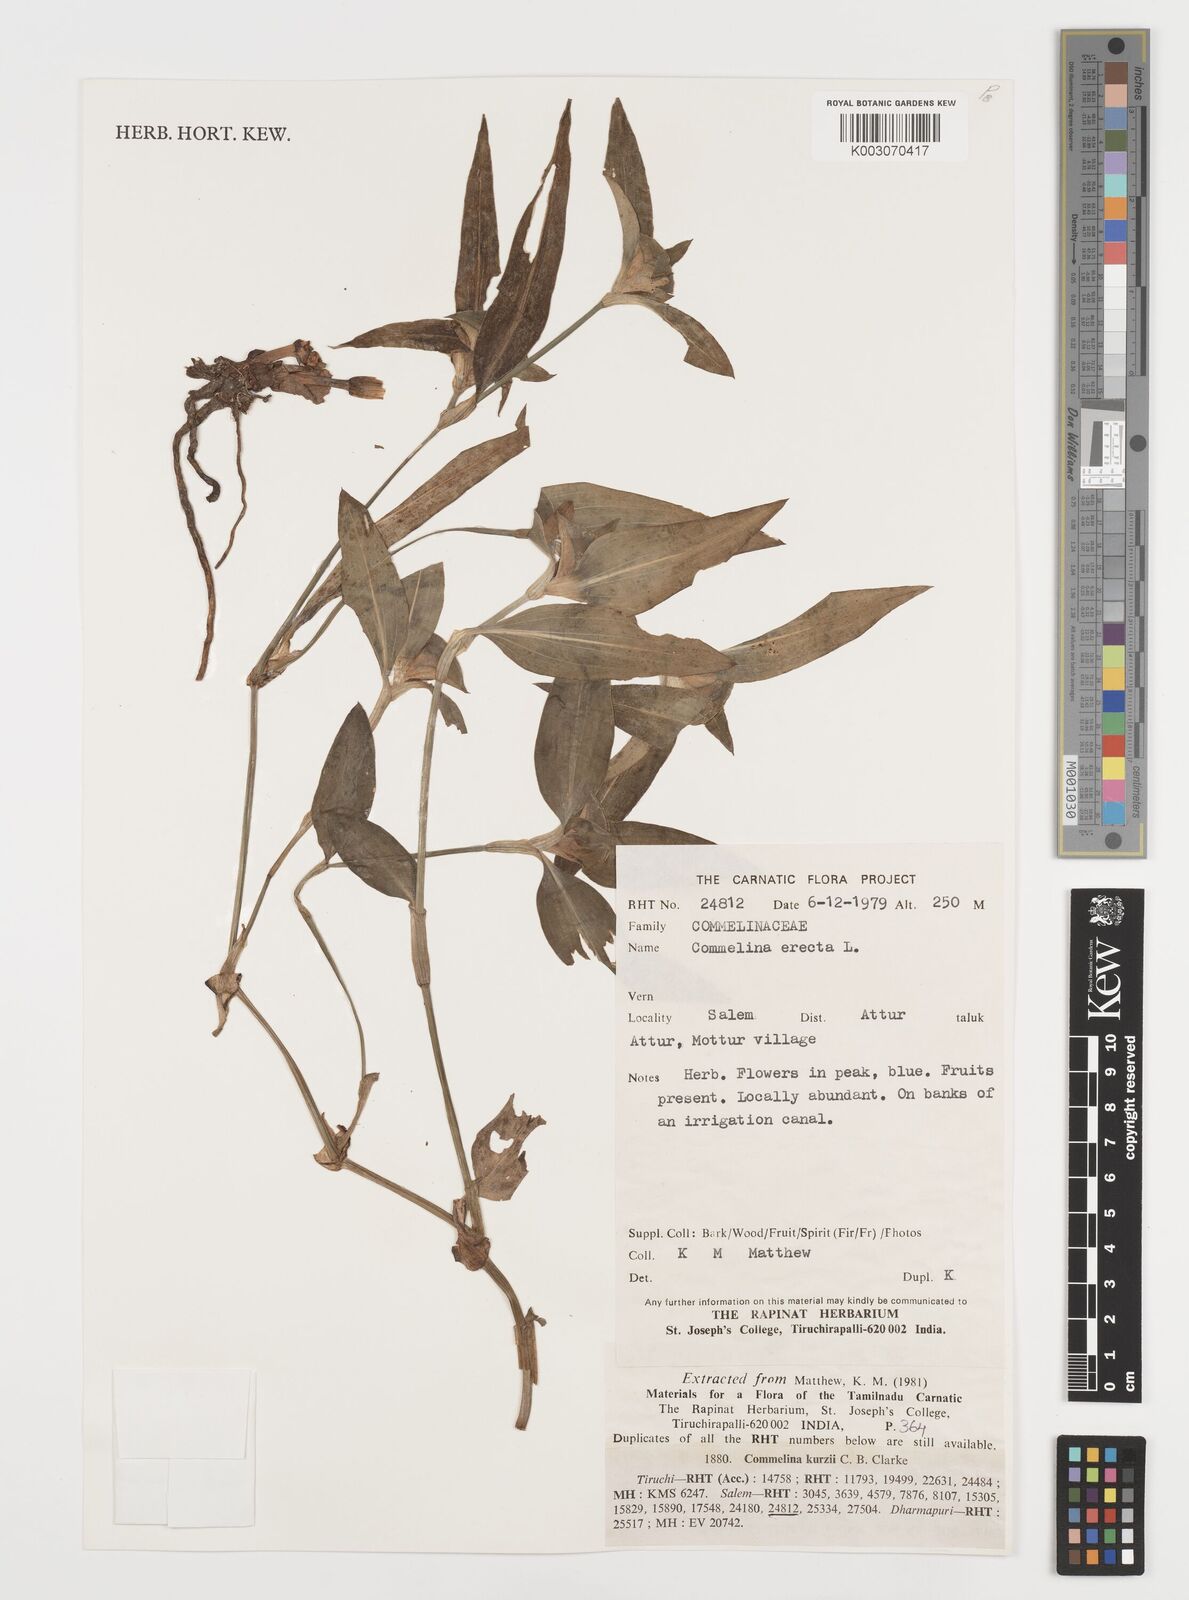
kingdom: Plantae
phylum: Tracheophyta
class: Liliopsida
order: Commelinales
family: Commelinaceae
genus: Commelina
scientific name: Commelina erecta
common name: Blousel blommetjie
